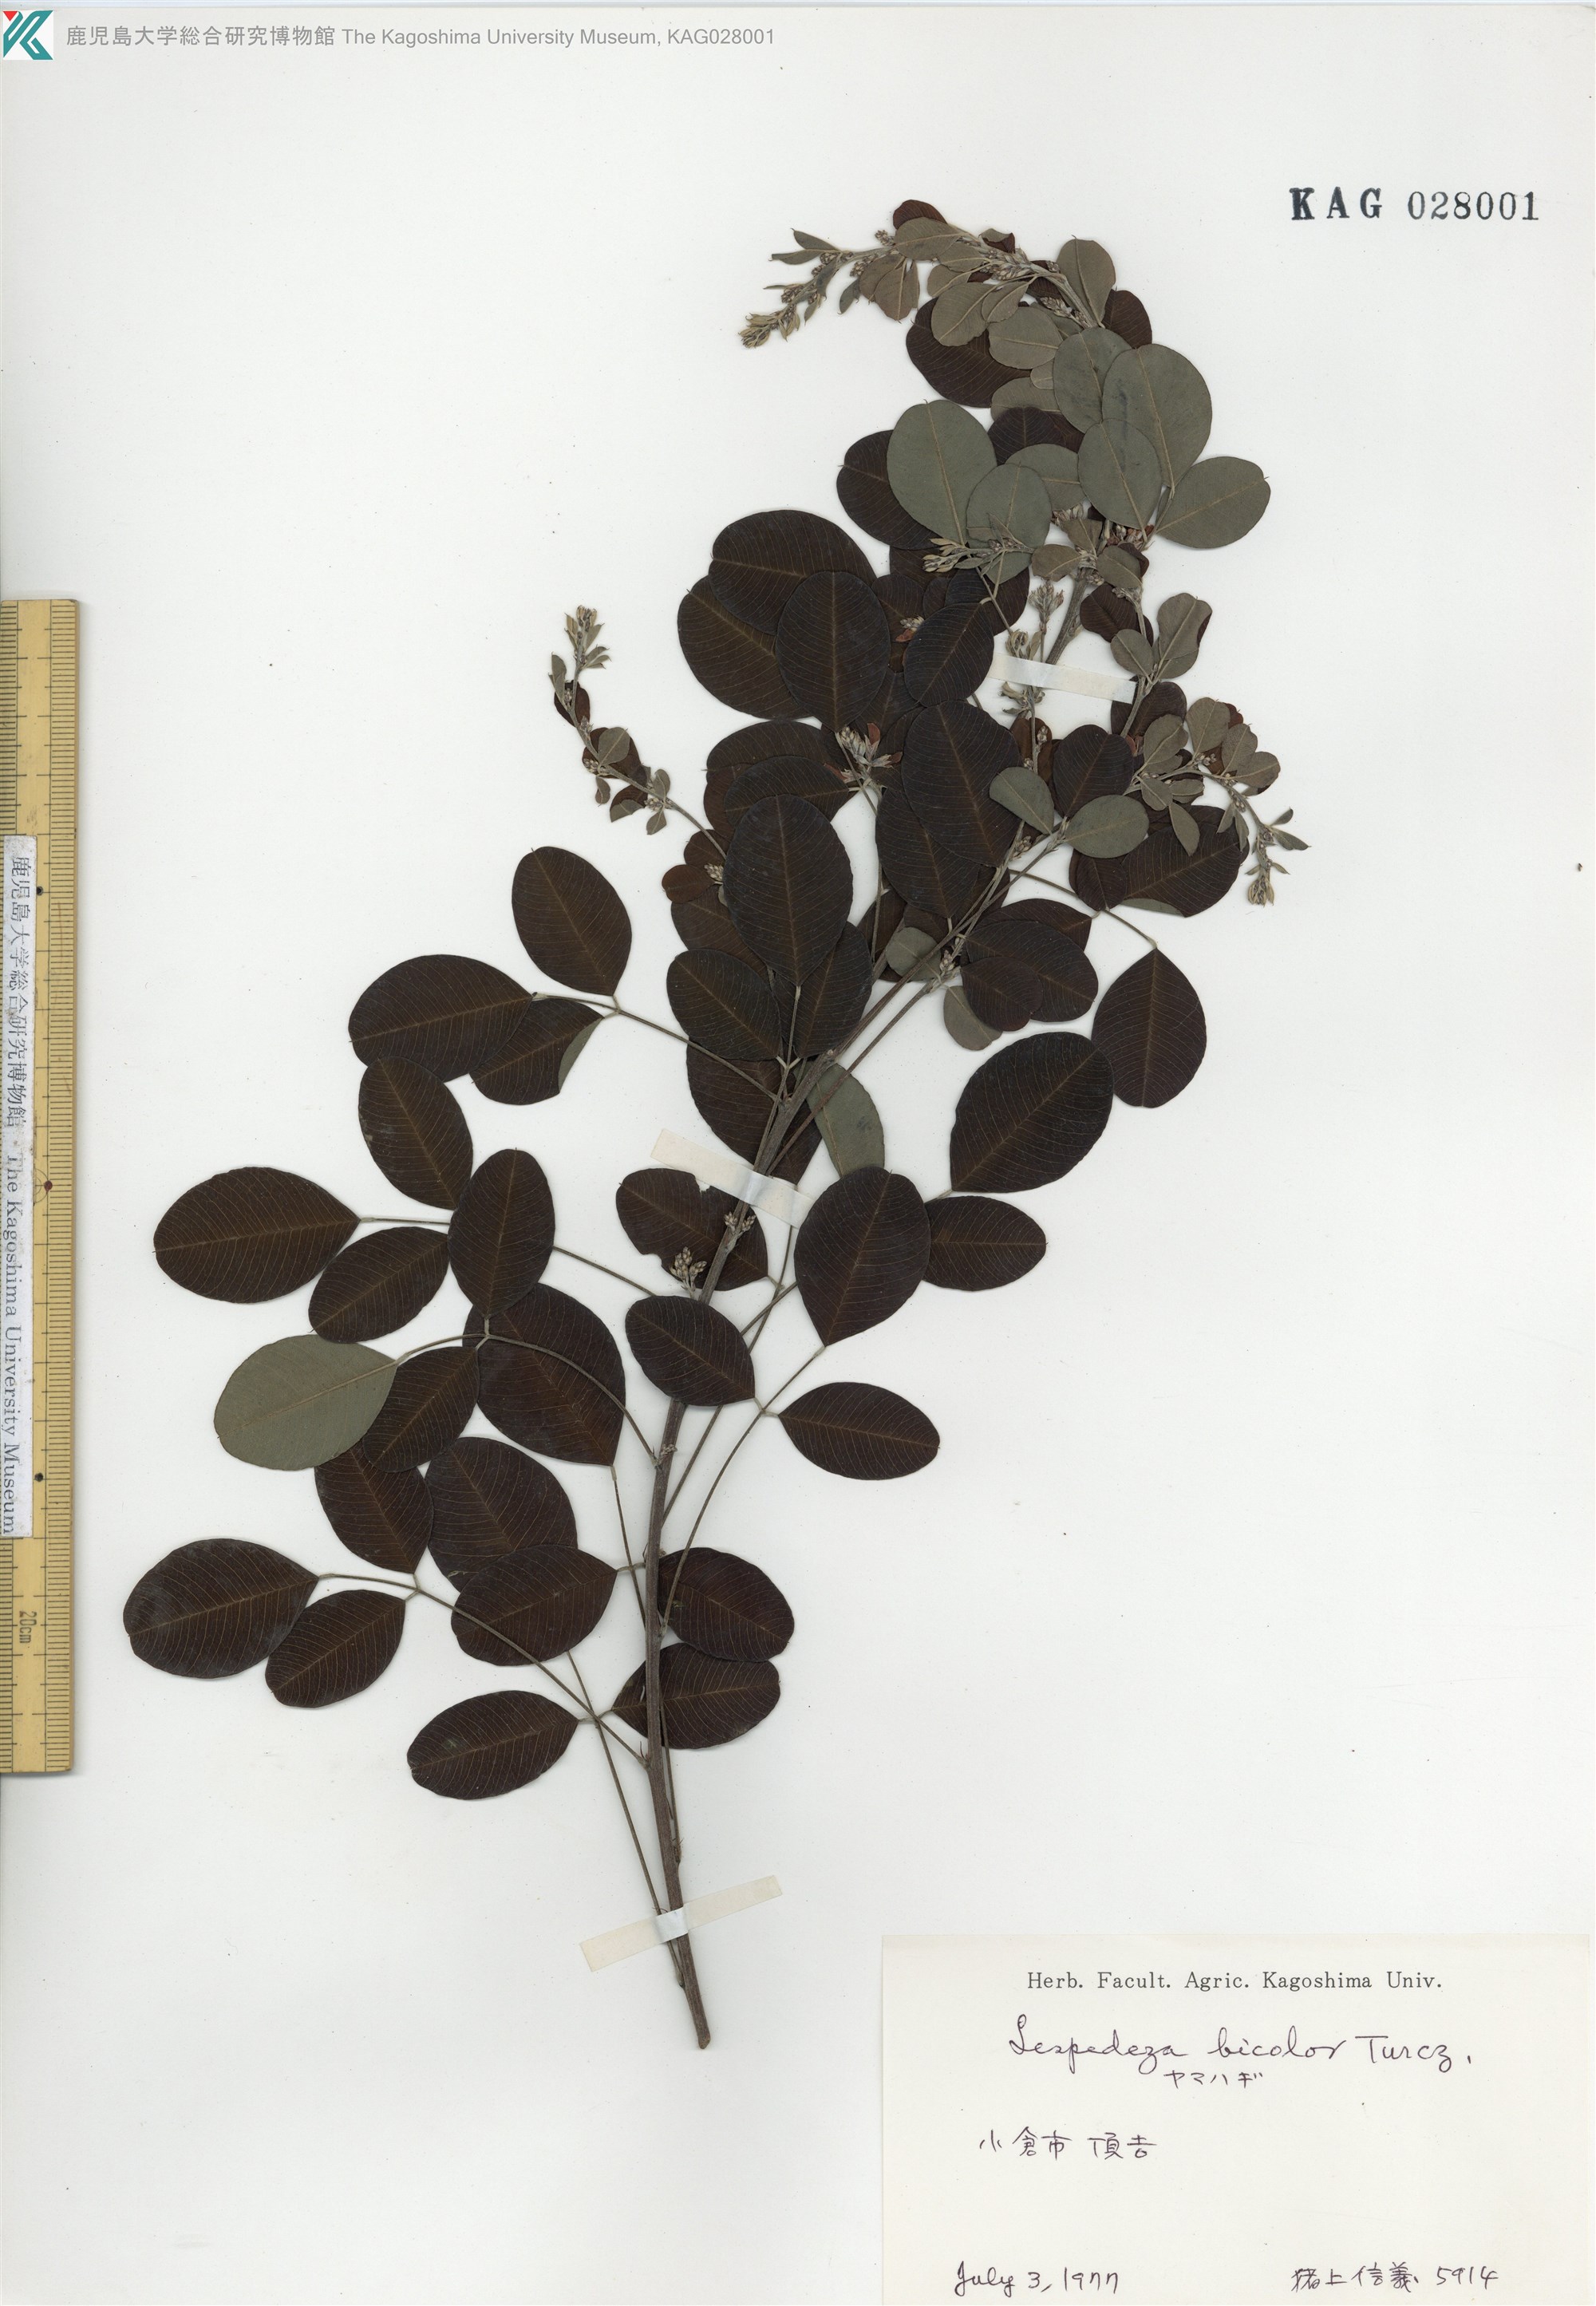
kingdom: Plantae
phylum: Tracheophyta
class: Magnoliopsida
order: Fabales
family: Fabaceae
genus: Lespedeza
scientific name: Lespedeza bicolor
